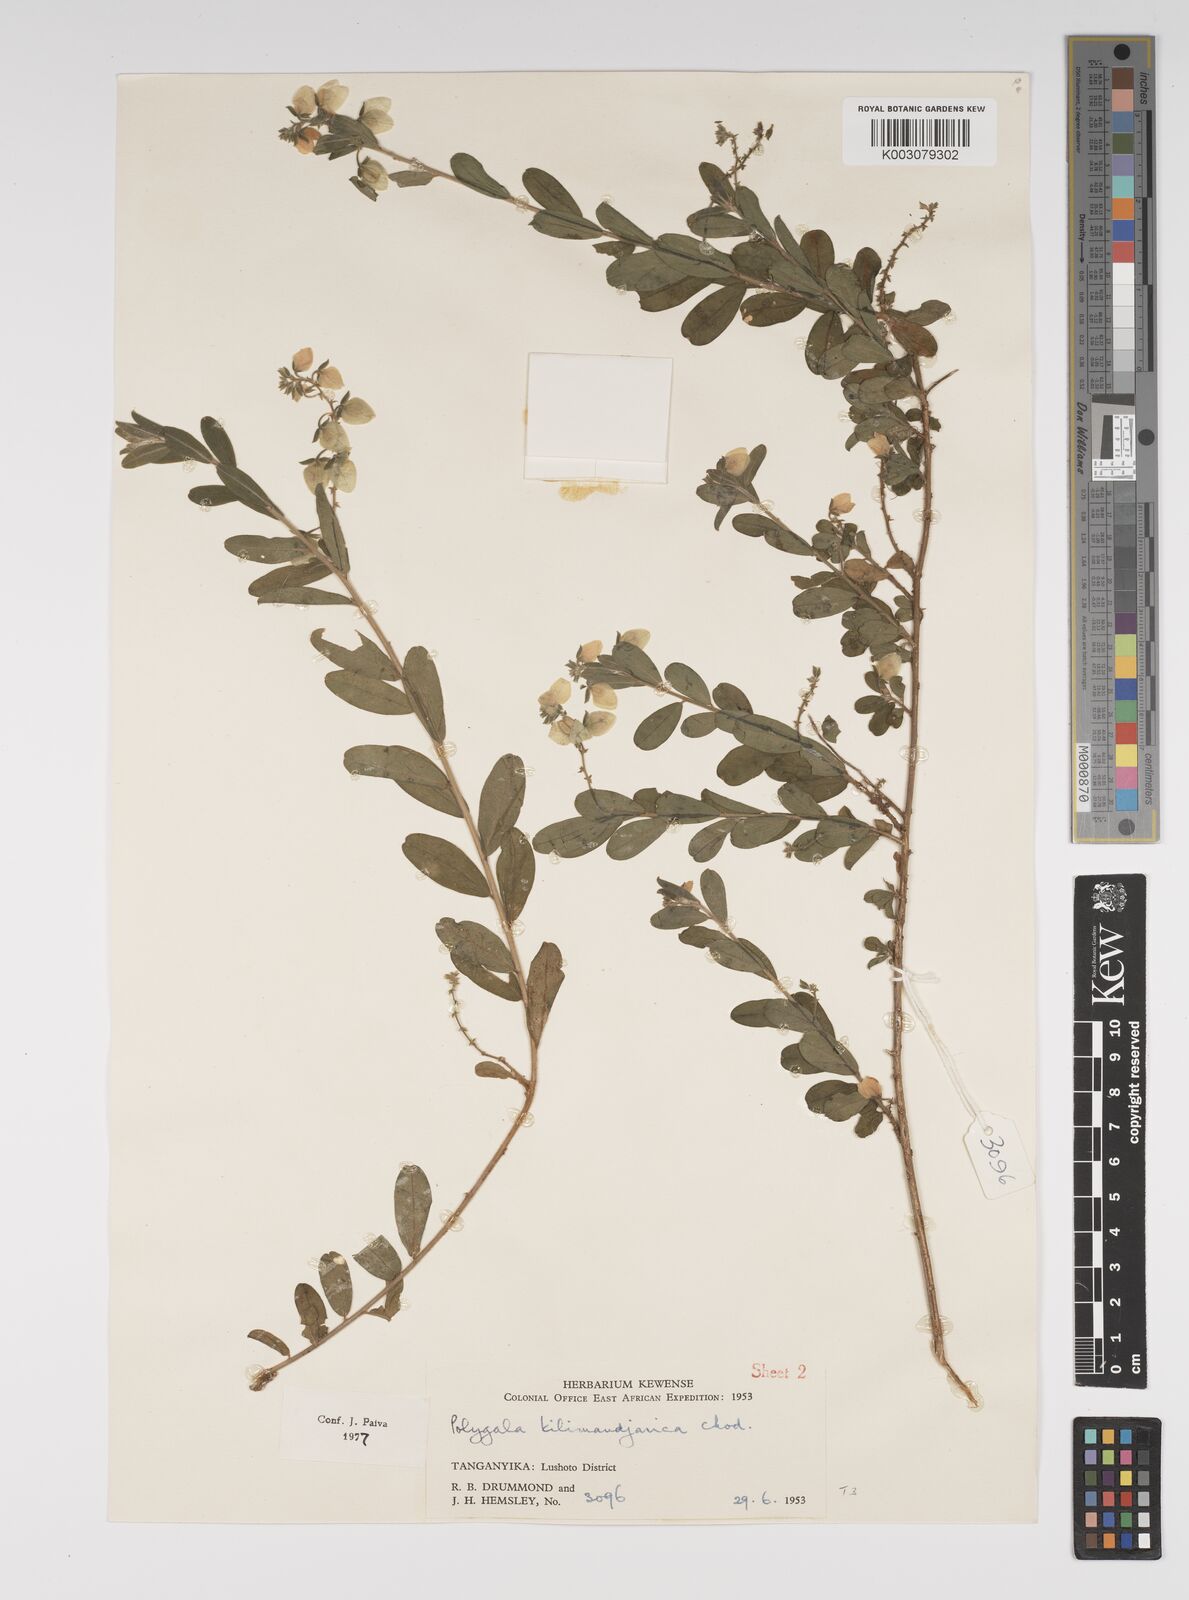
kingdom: Plantae
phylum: Tracheophyta
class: Magnoliopsida
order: Fabales
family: Polygalaceae
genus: Polygala
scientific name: Polygala kilimandjarica
